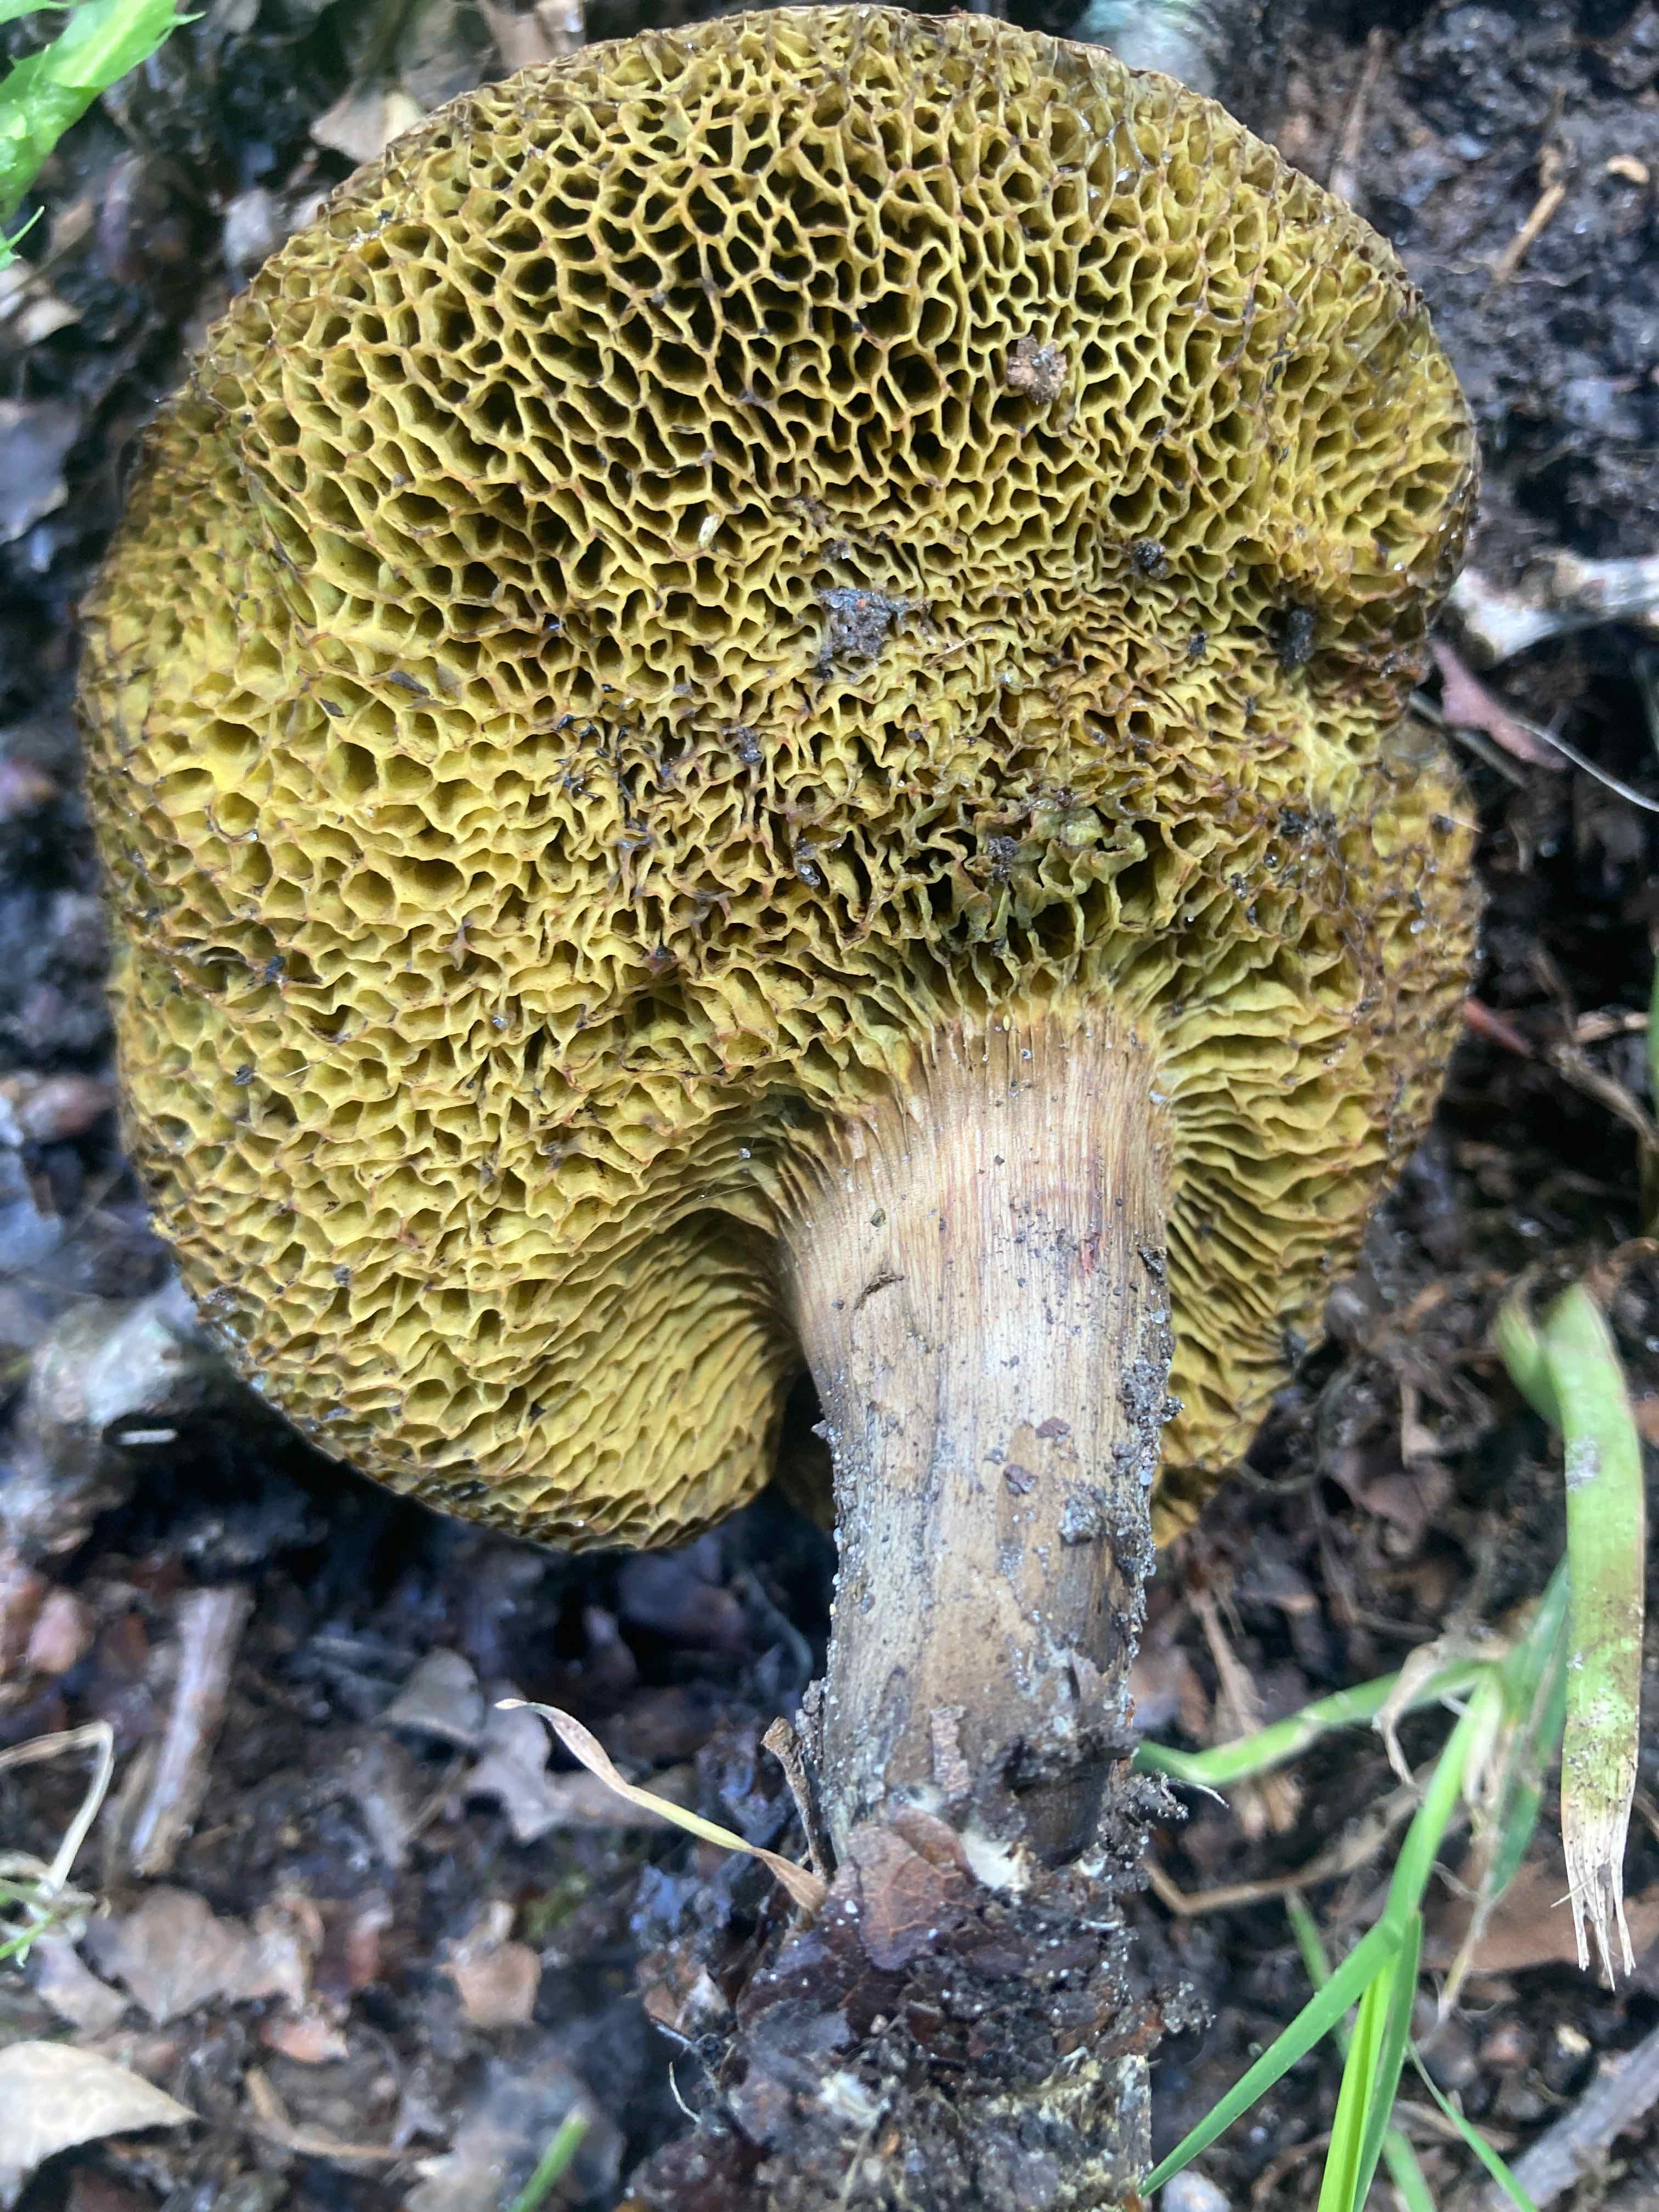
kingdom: Fungi
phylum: Basidiomycota
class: Agaricomycetes
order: Boletales
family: Boletaceae
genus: Xerocomellus
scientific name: Xerocomellus porosporus
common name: hvidsprukken rørhat
